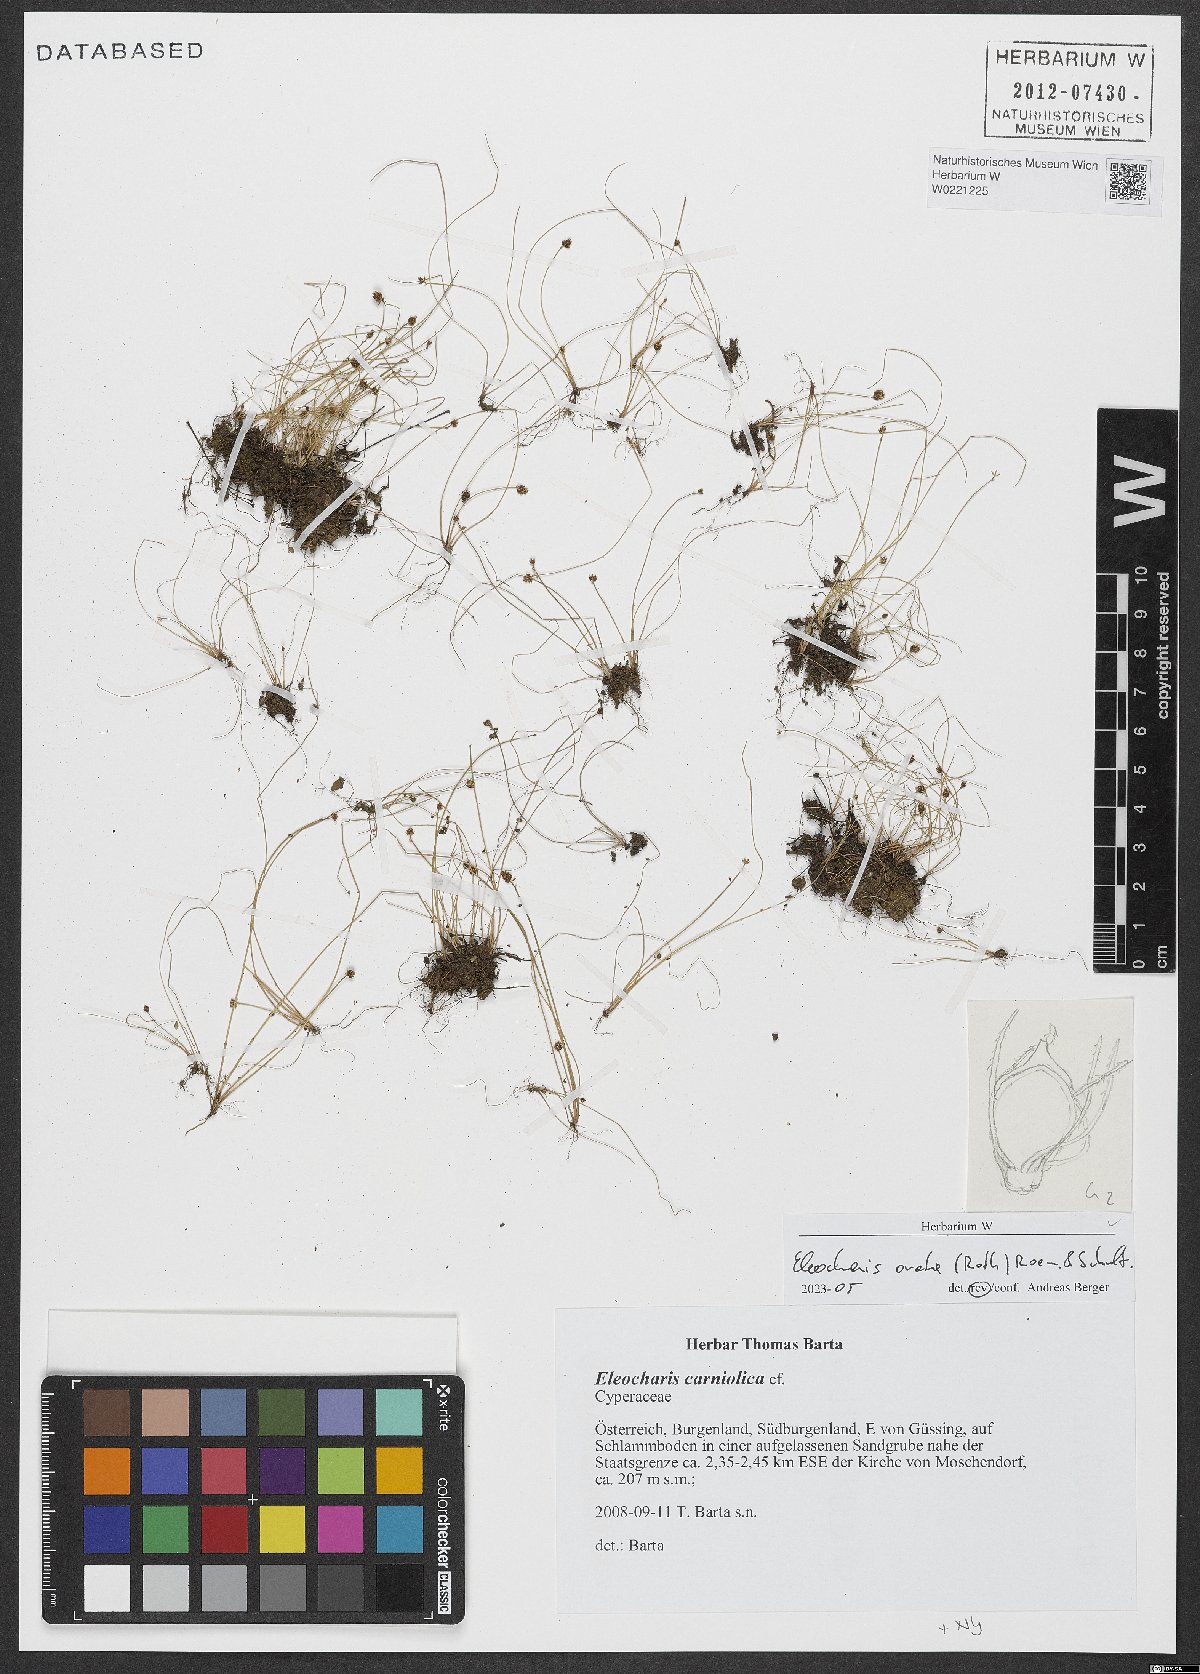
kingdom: Plantae
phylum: Tracheophyta
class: Liliopsida
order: Poales
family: Cyperaceae
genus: Eleocharis
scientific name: Eleocharis ovata
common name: Oval spike-rush
